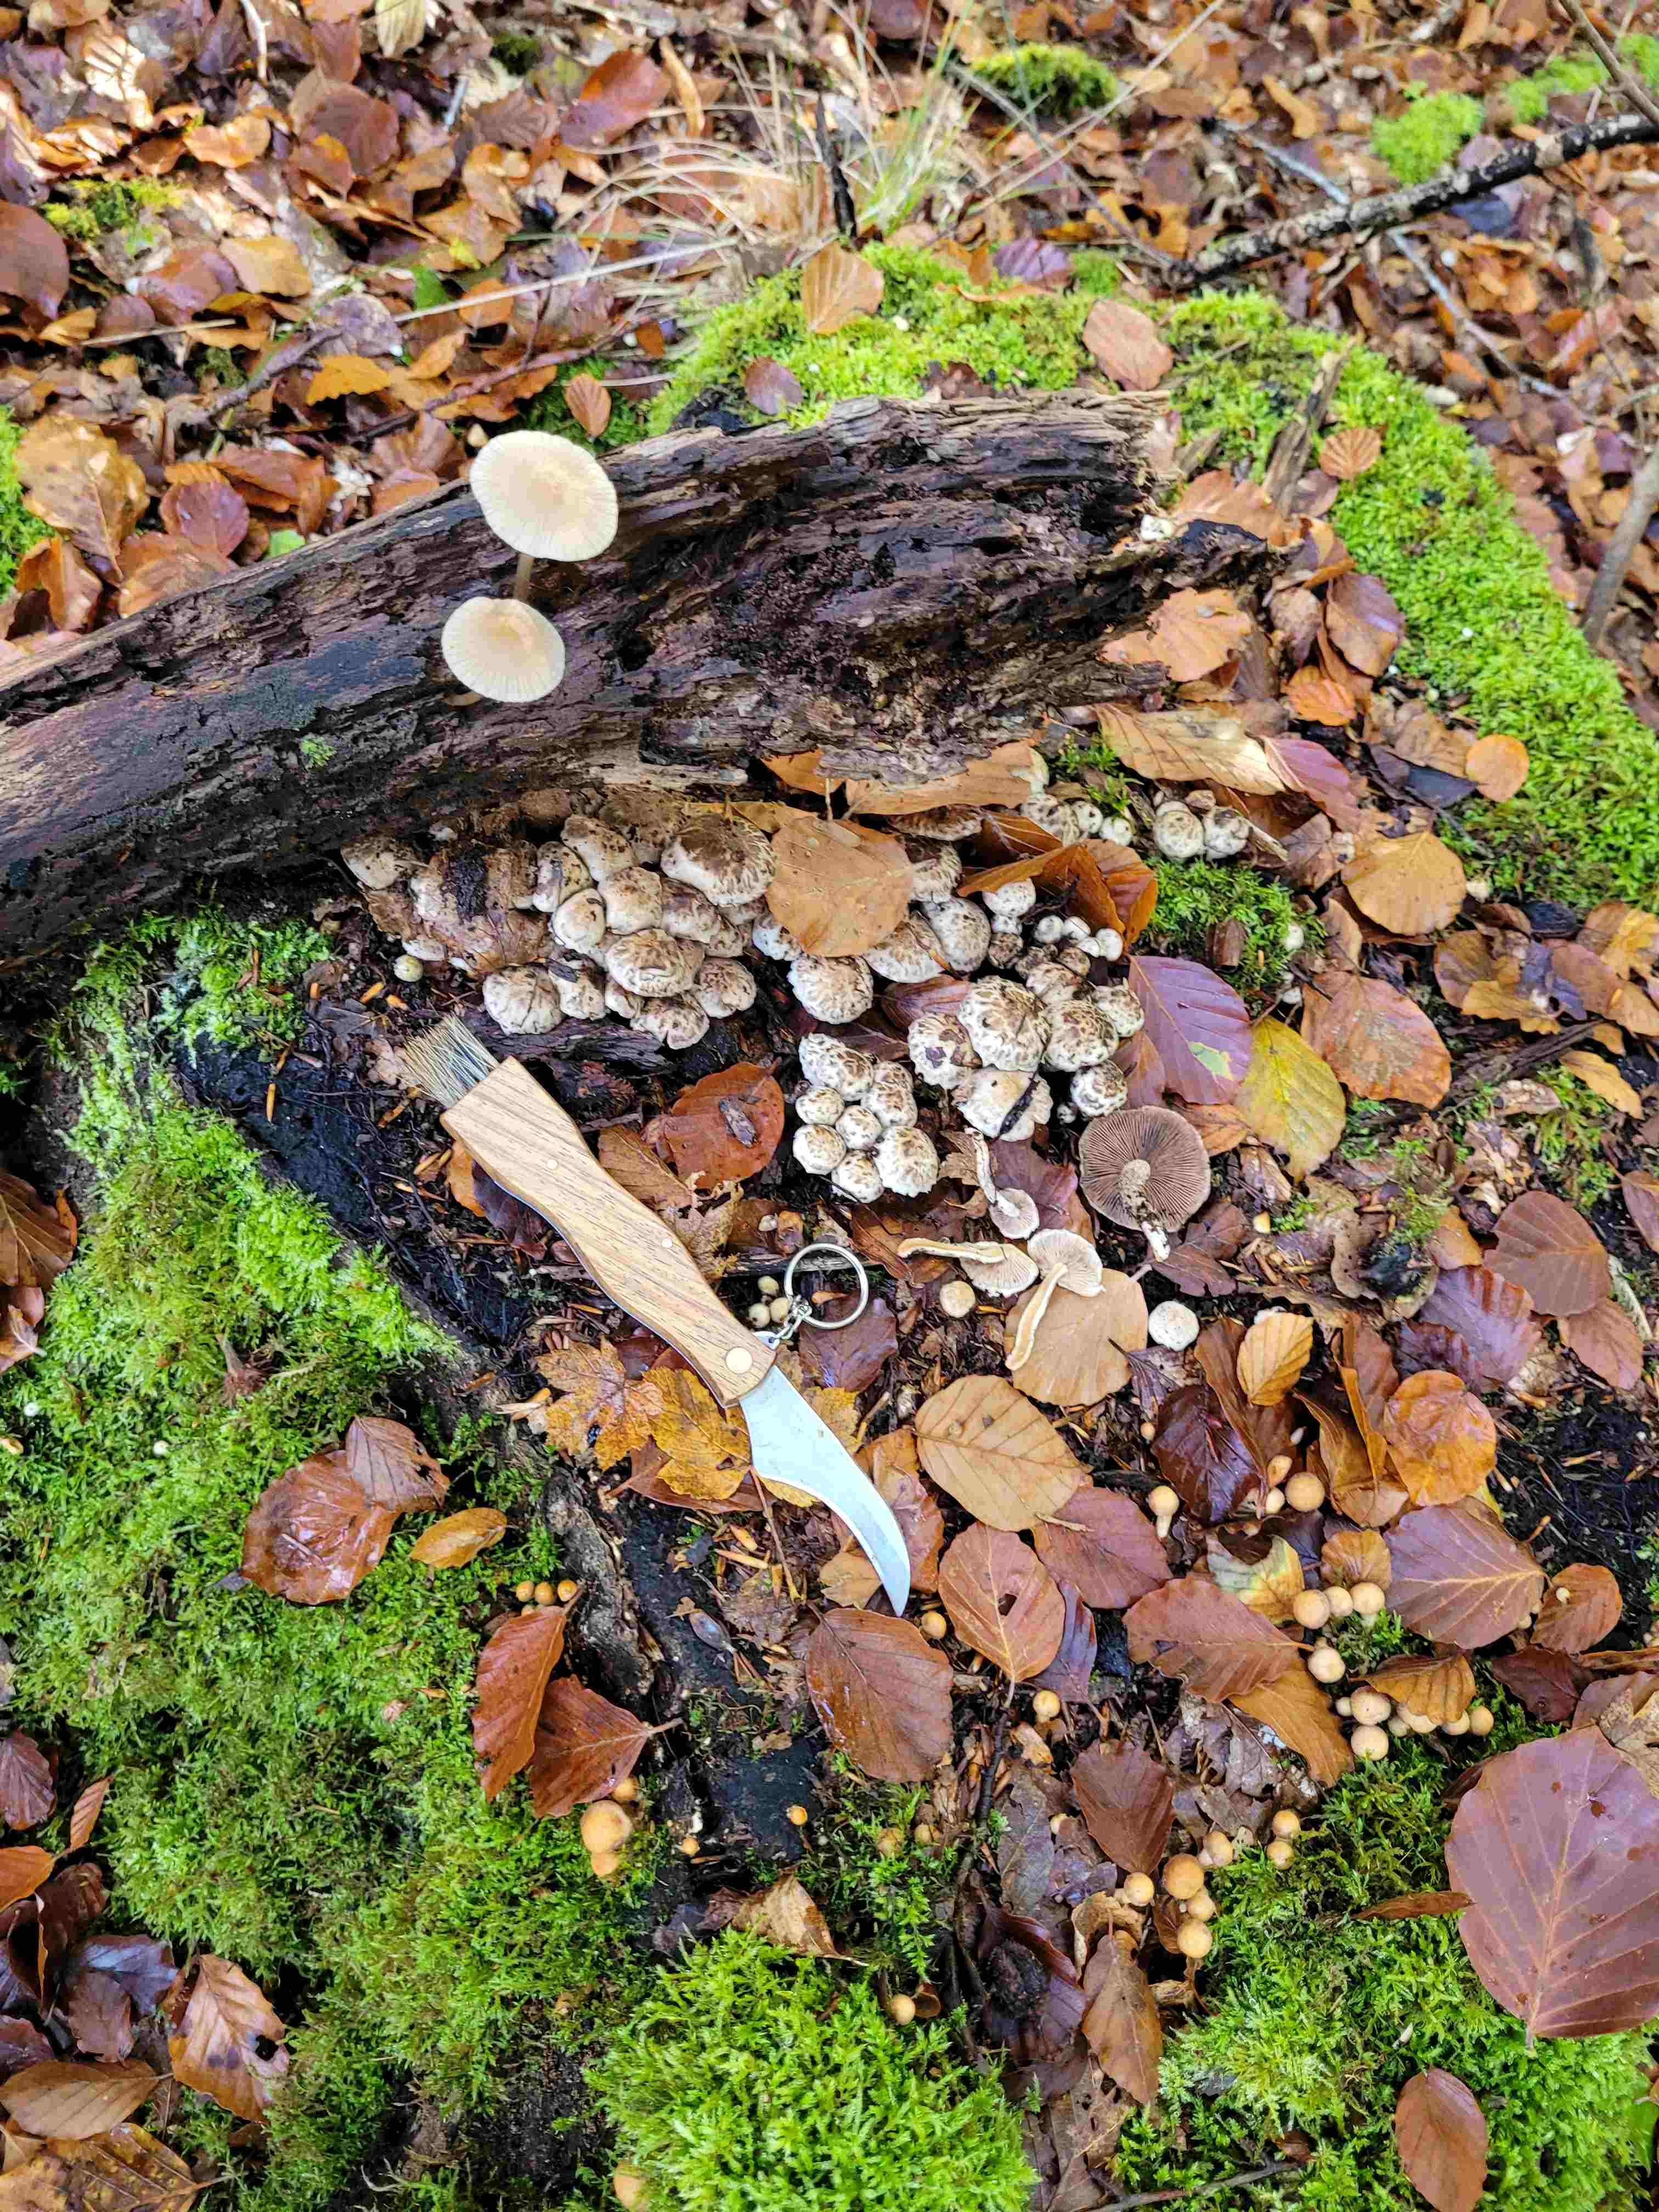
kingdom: Fungi
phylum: Basidiomycota
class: Agaricomycetes
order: Agaricales
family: Psathyrellaceae
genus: Psathyrella
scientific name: Psathyrella cotonea
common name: skællet mørkhat
